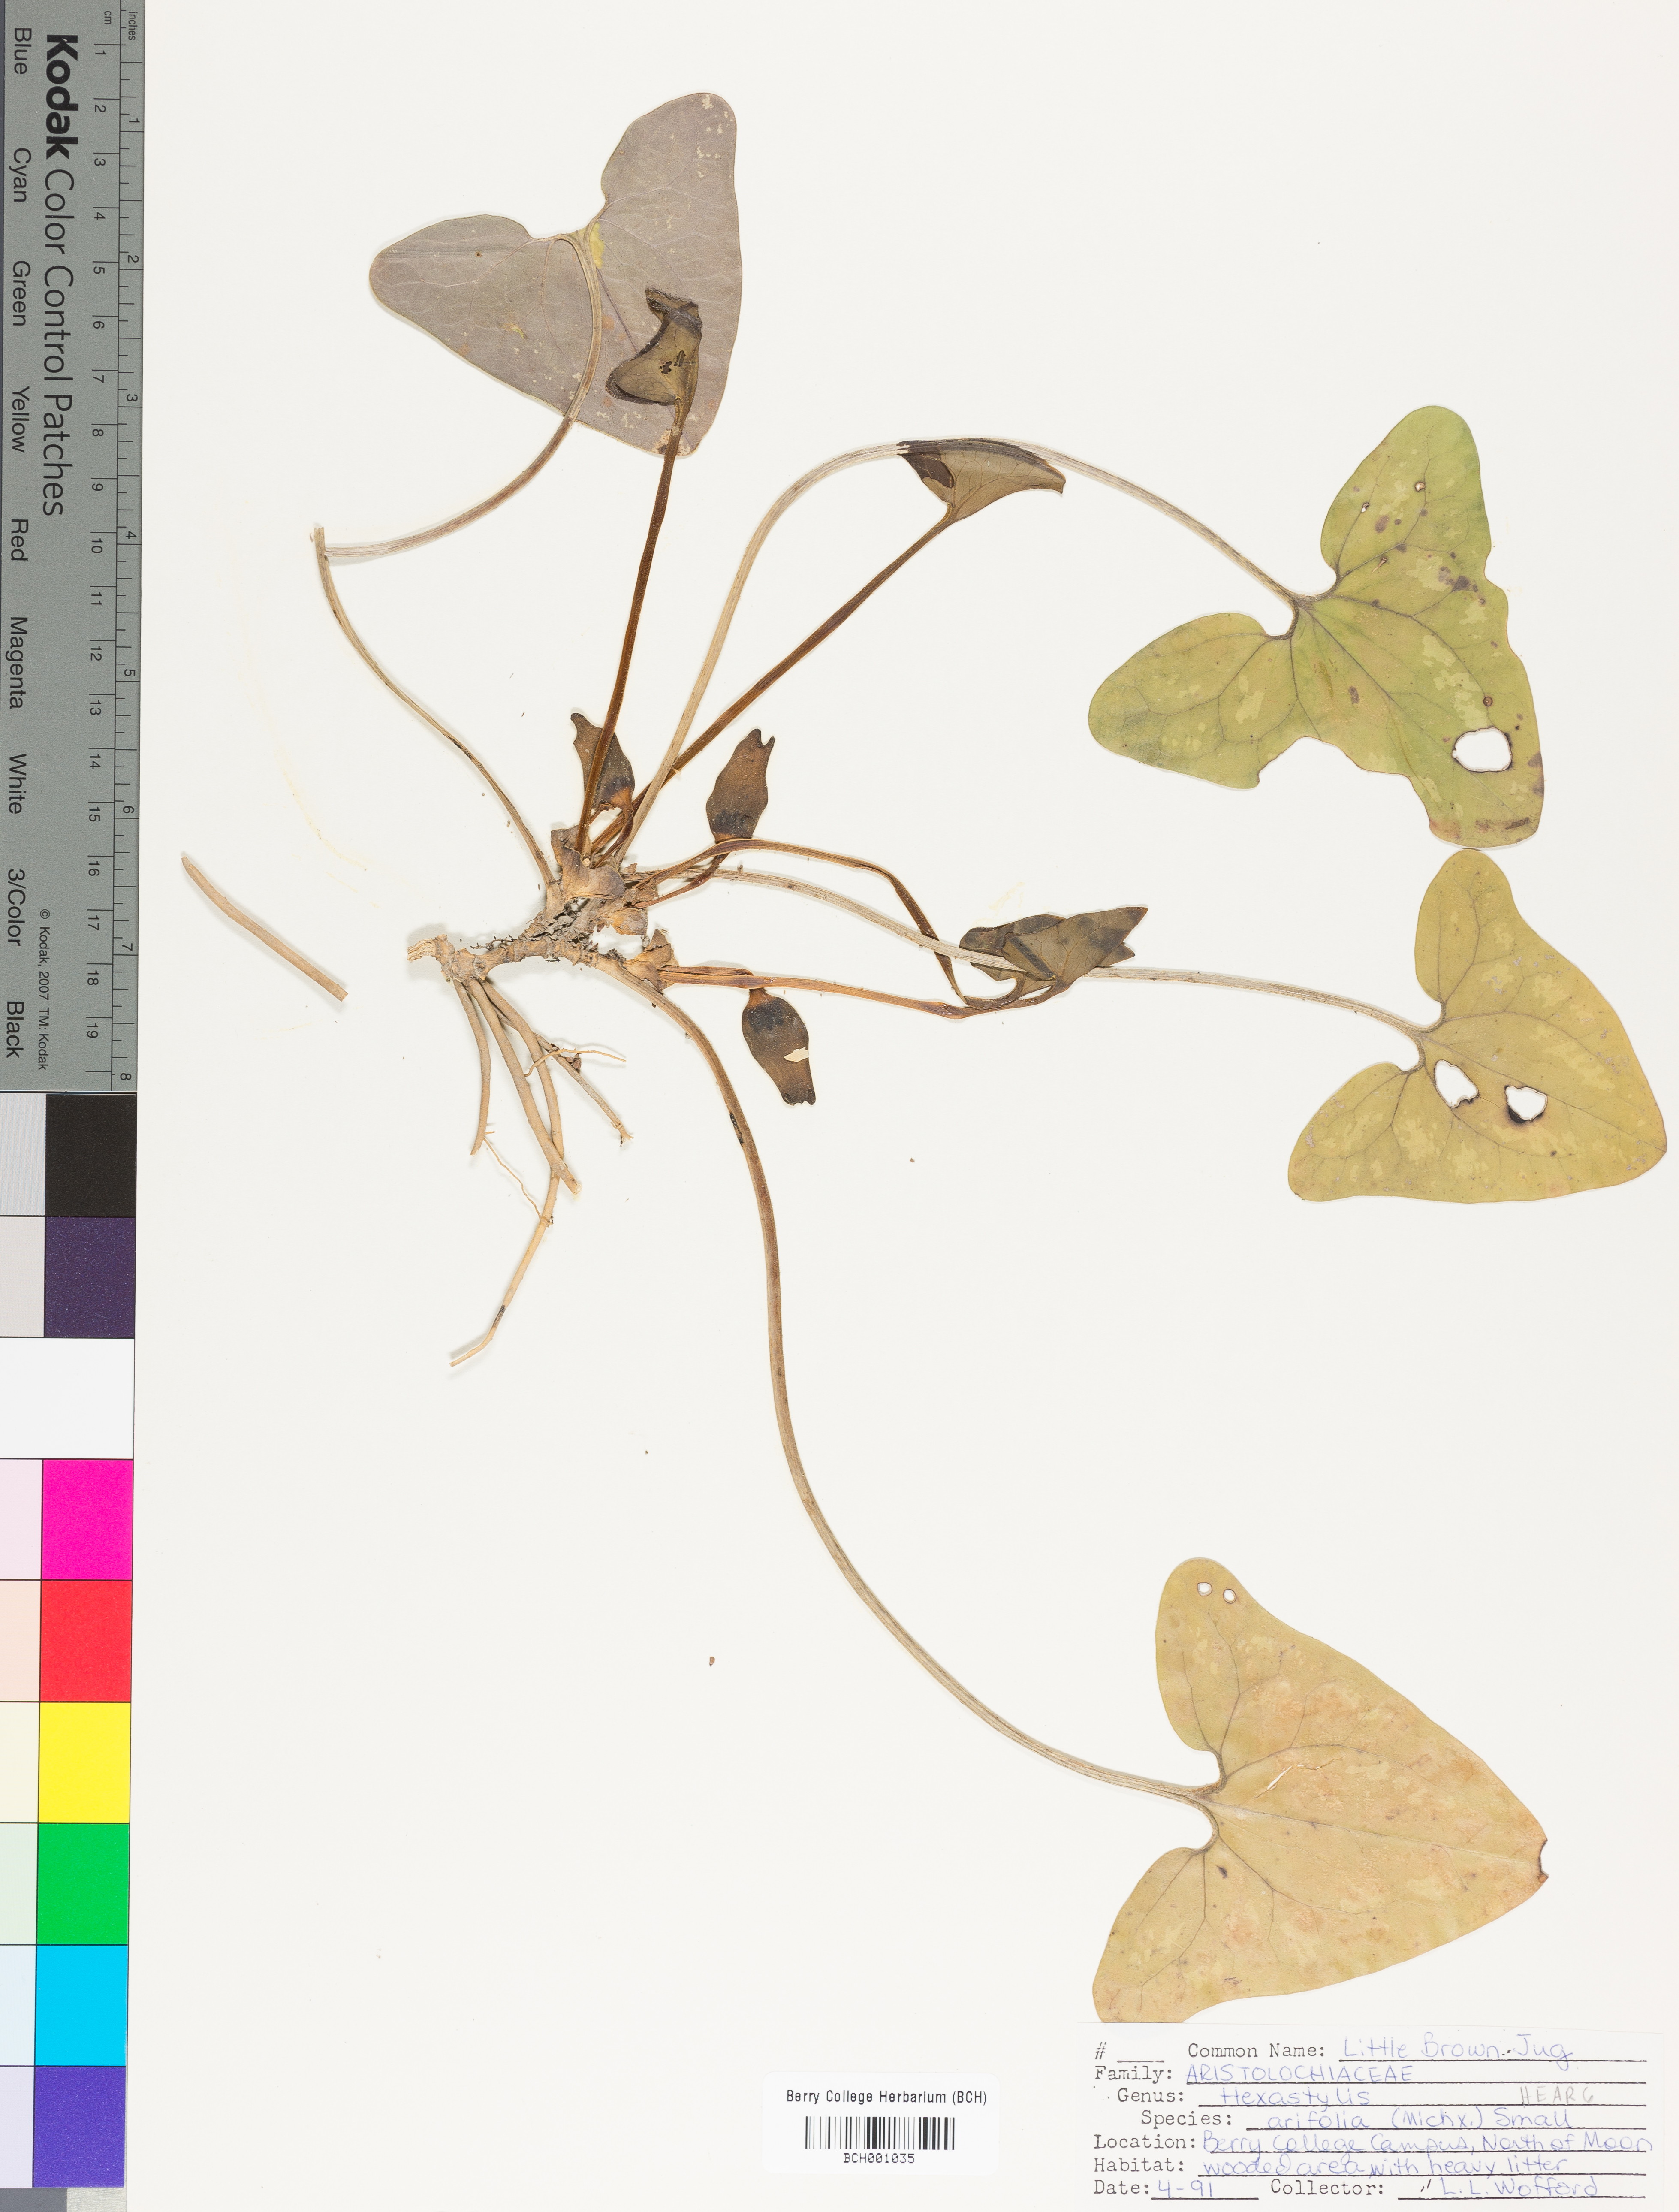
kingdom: Plantae
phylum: Tracheophyta
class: Magnoliopsida
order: Piperales
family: Aristolochiaceae
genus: Hexastylis
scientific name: Hexastylis arifolia
